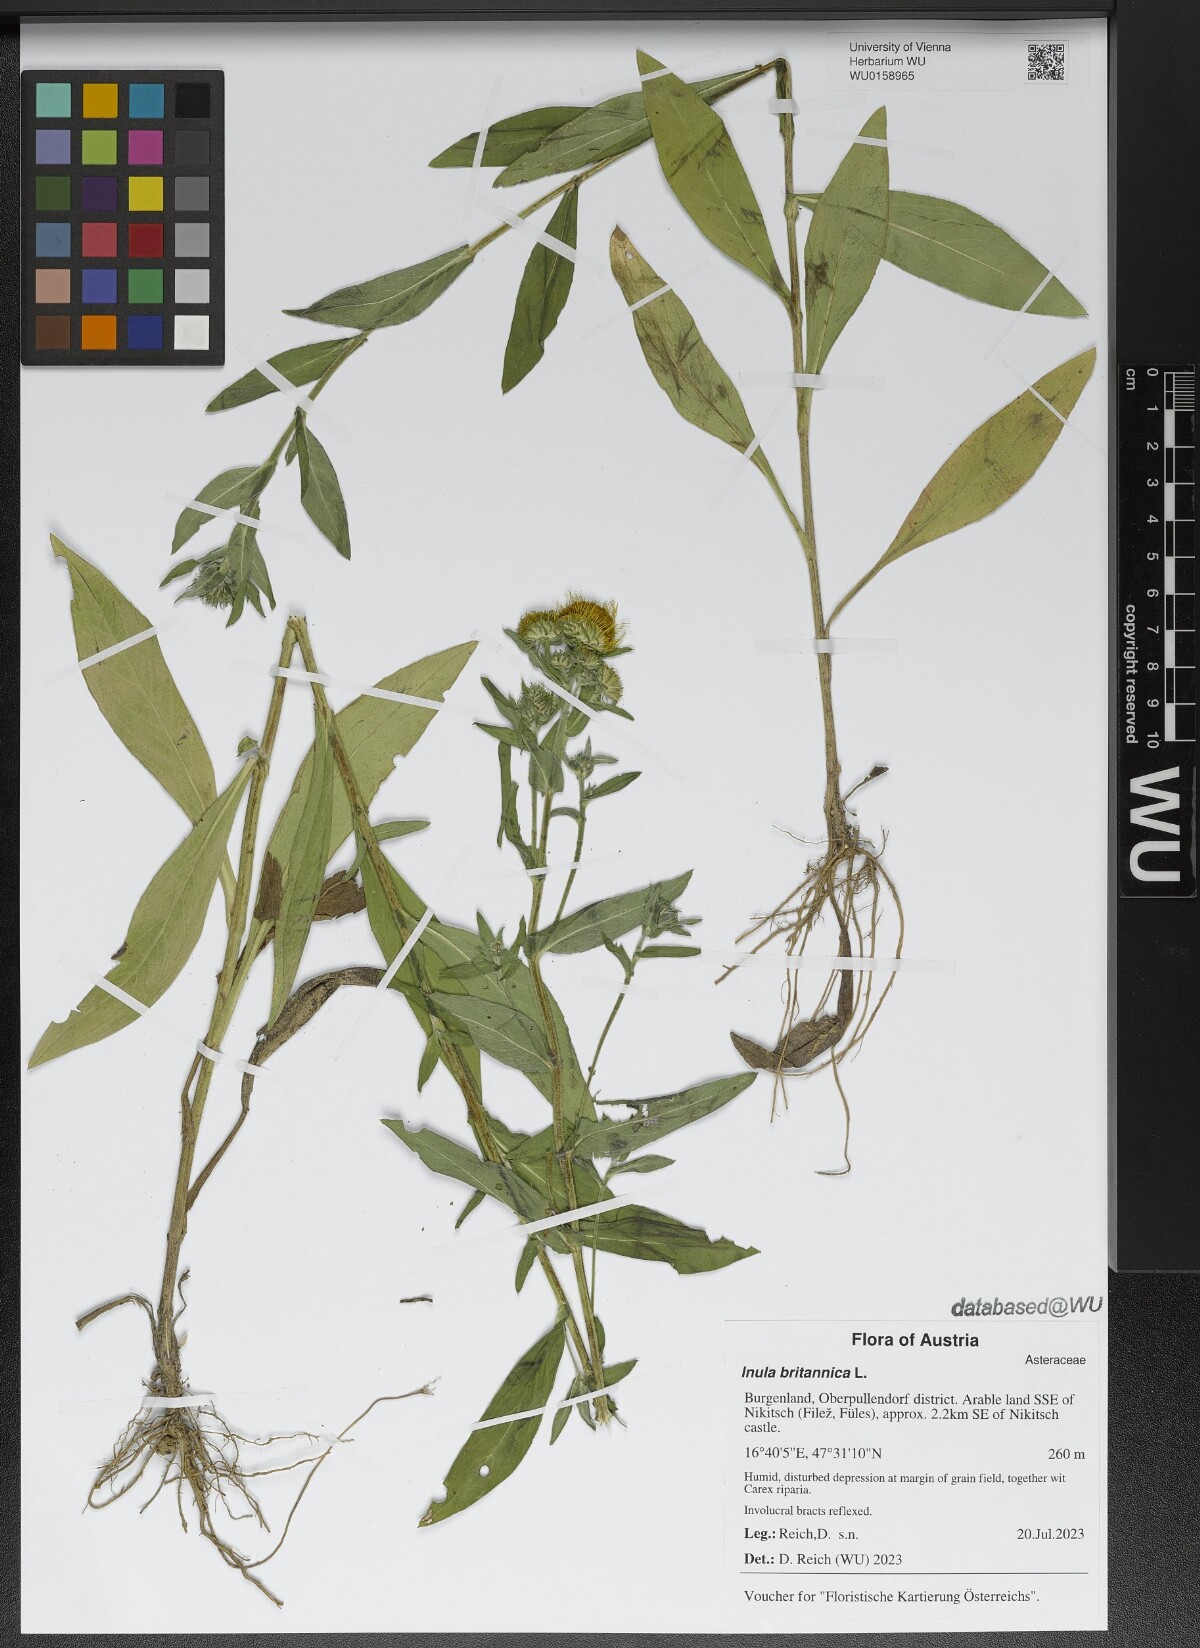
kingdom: Plantae
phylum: Tracheophyta
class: Magnoliopsida
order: Asterales
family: Asteraceae
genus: Pentanema
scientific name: Pentanema britannicum
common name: British elecampane
